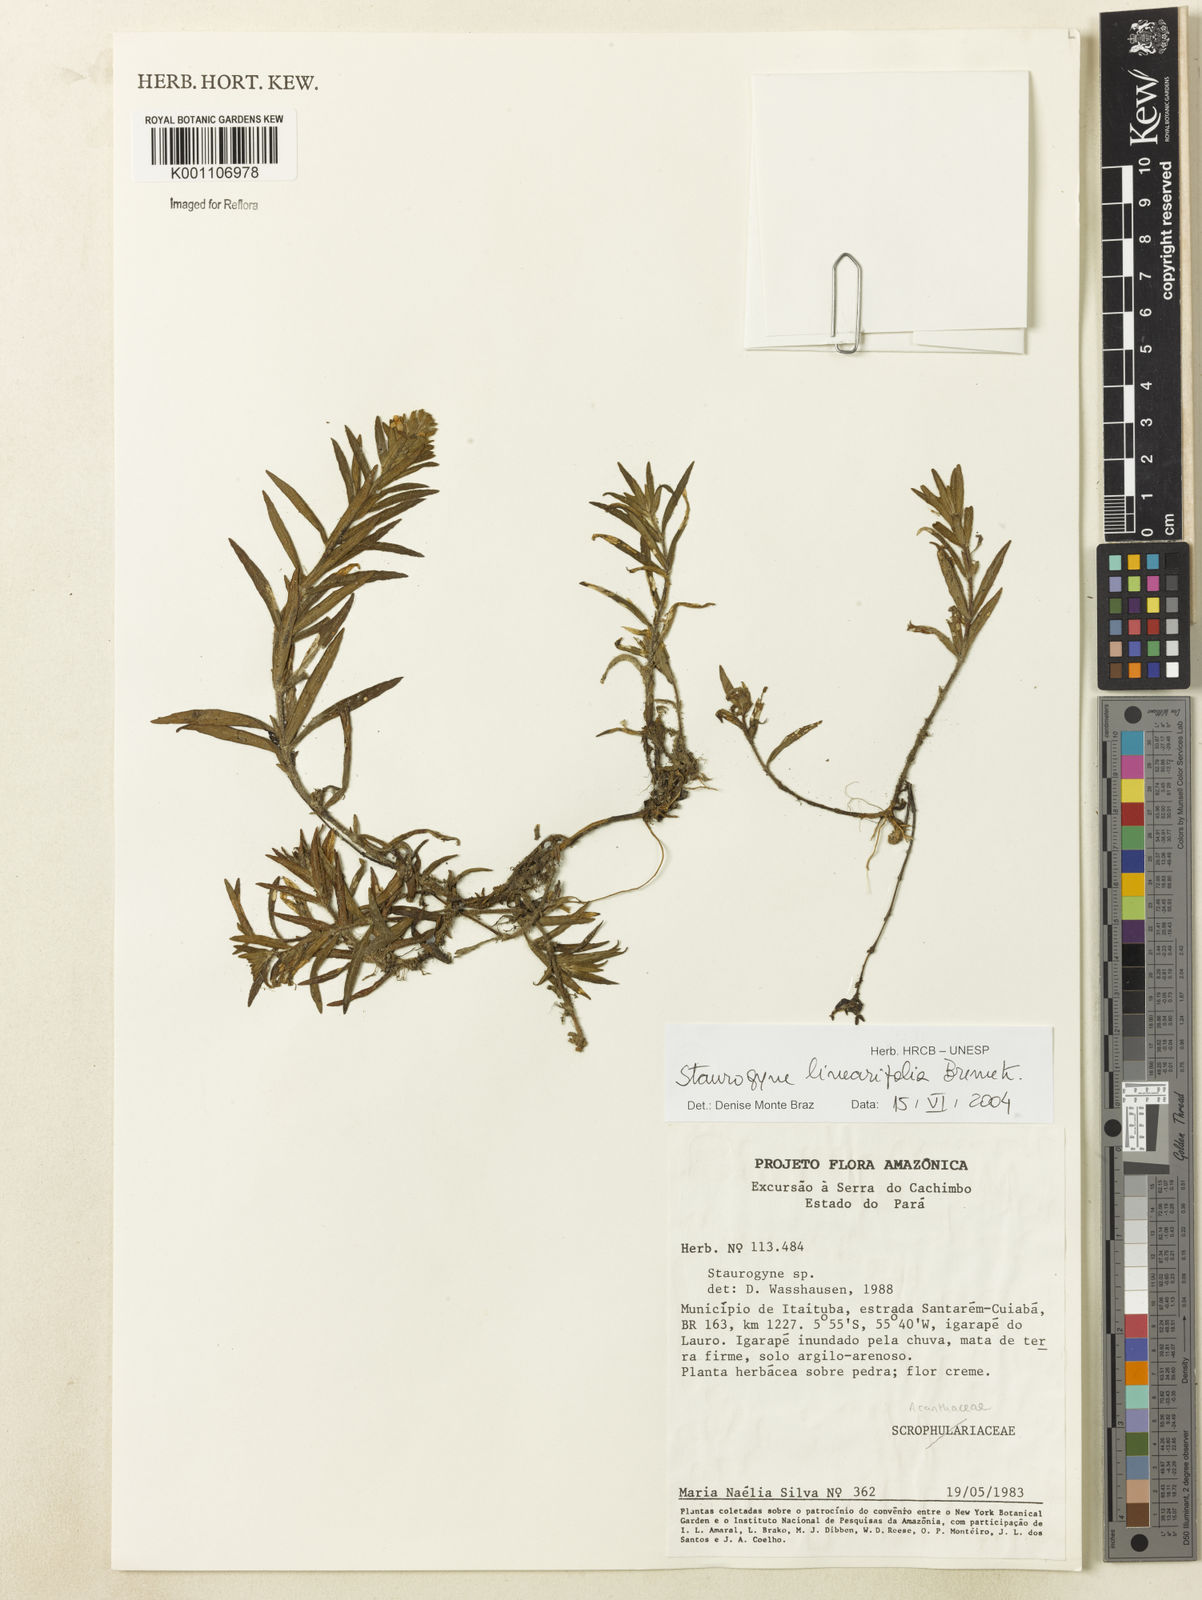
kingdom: Plantae
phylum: Tracheophyta
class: Magnoliopsida
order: Lamiales
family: Acanthaceae
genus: Staurogyne
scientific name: Staurogyne stolonifera
